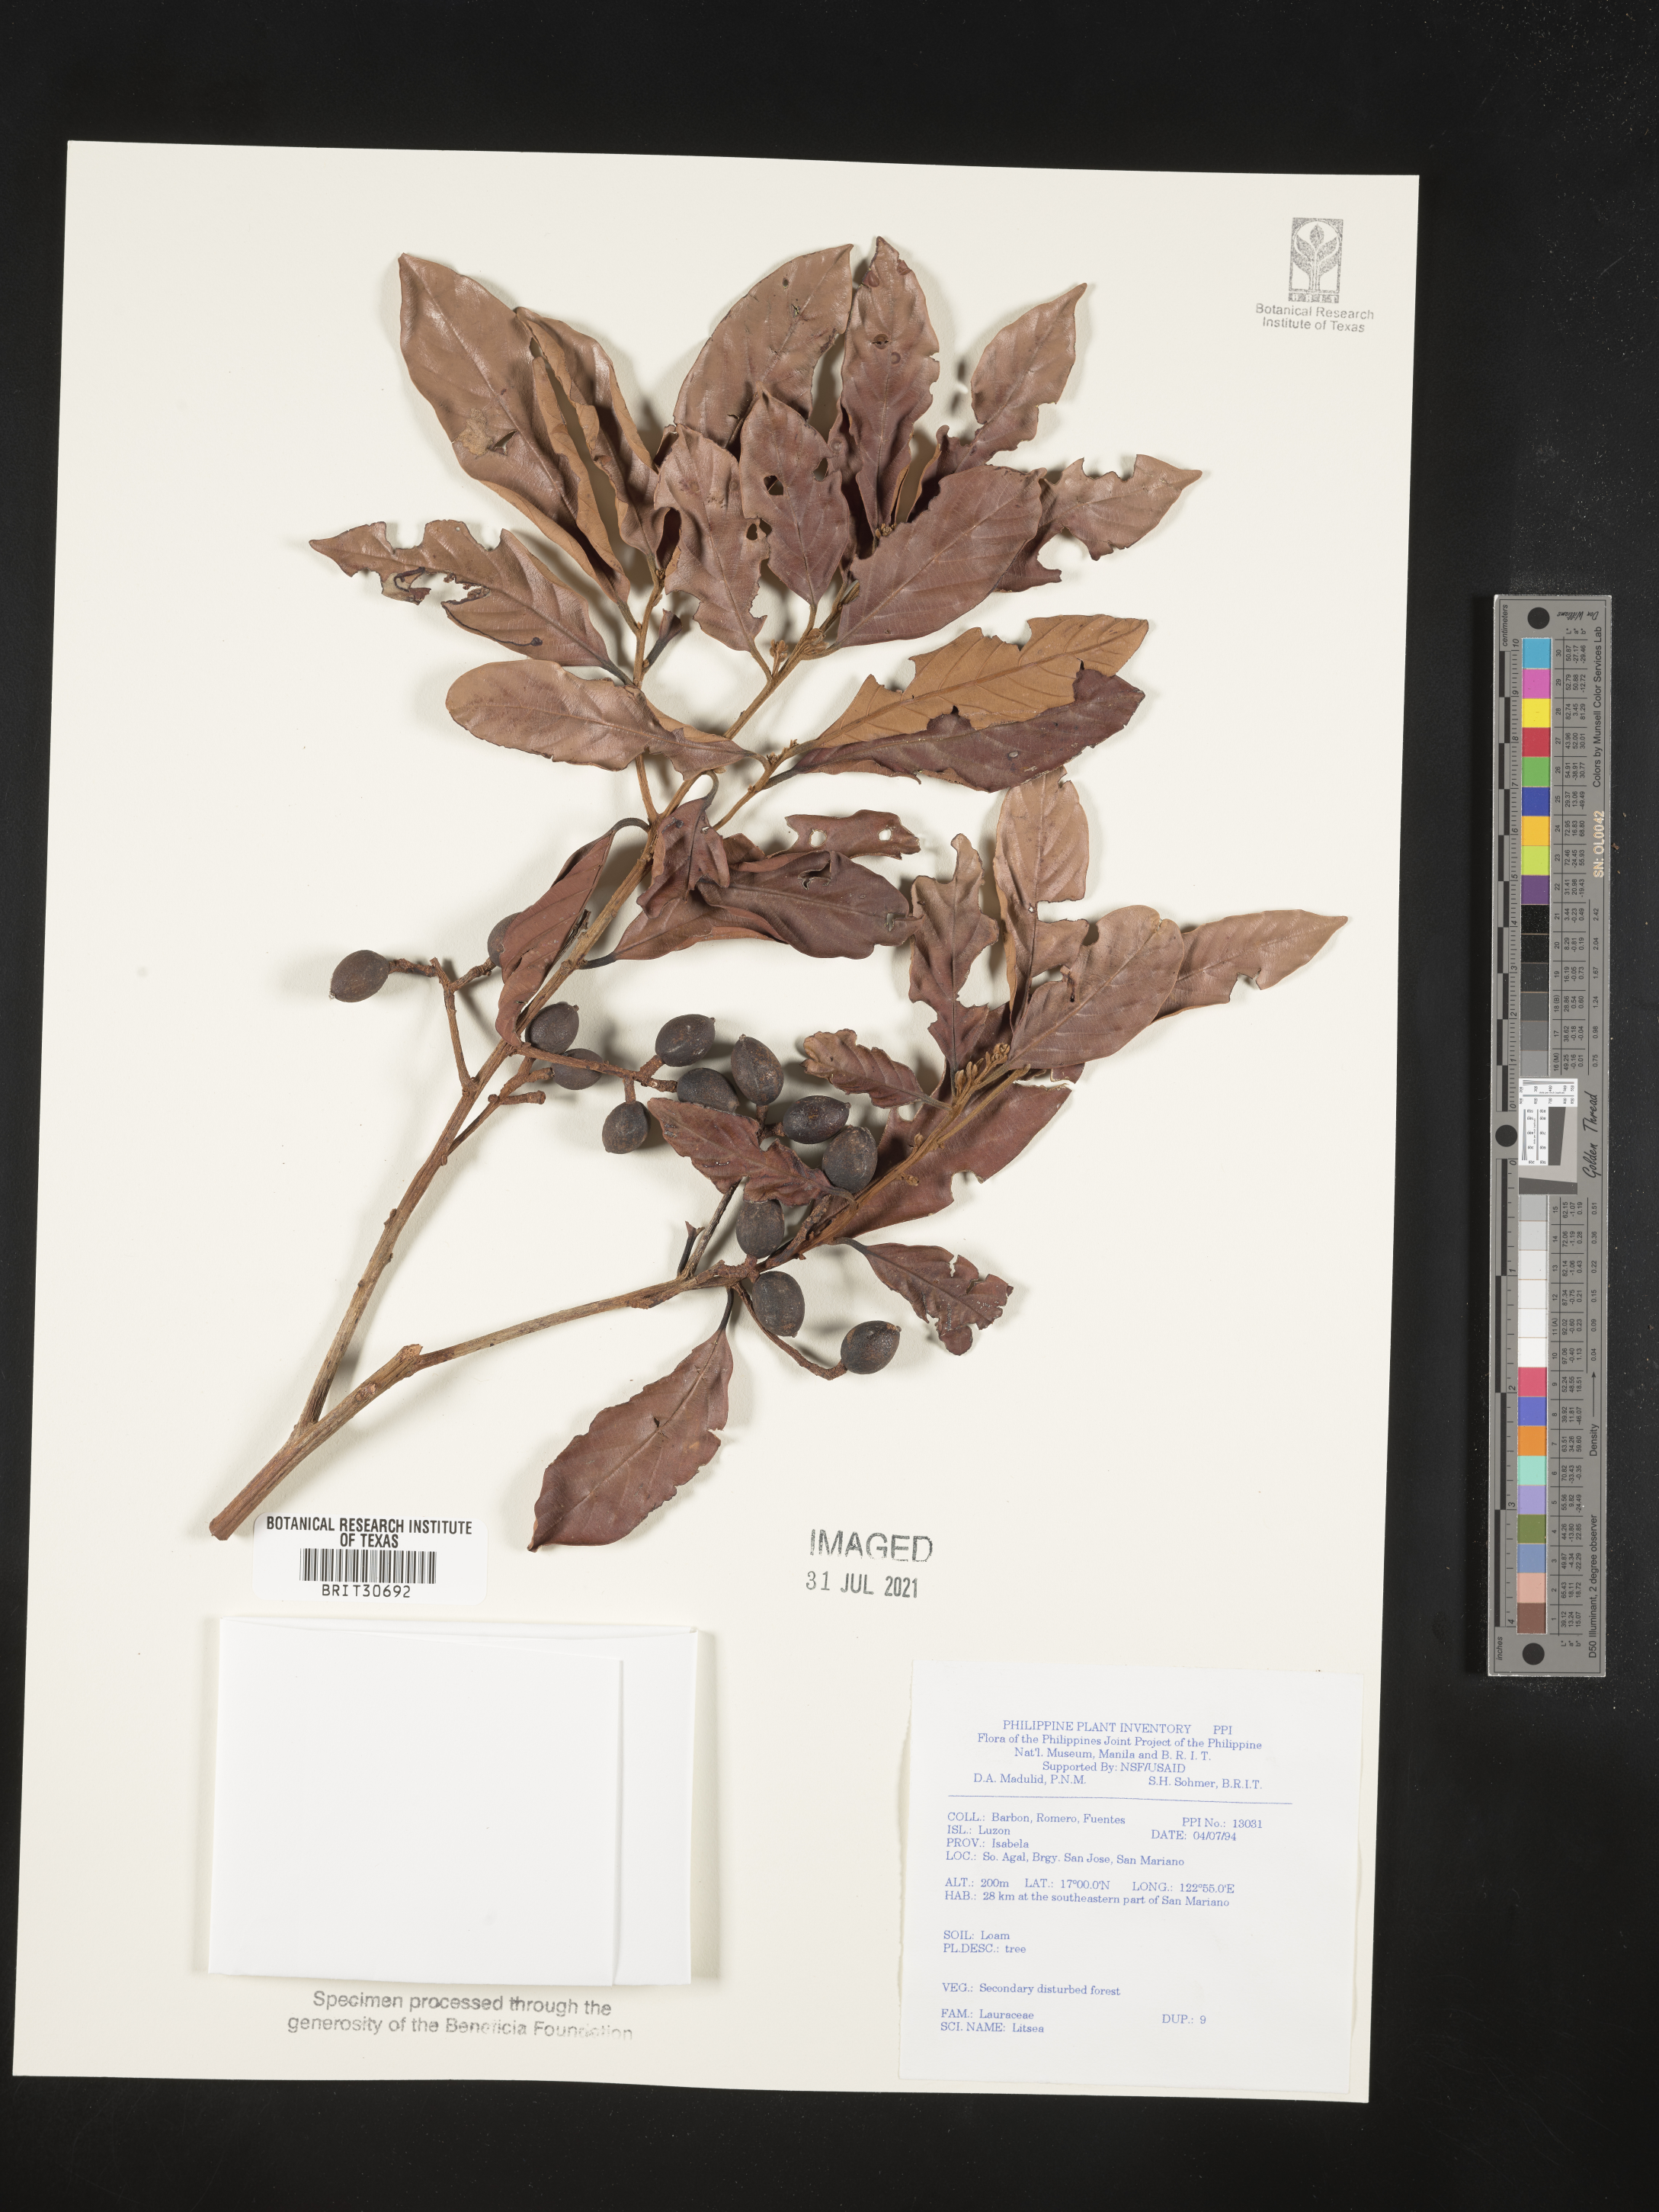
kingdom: Plantae
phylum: Tracheophyta
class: Magnoliopsida
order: Laurales
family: Lauraceae
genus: Litsea
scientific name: Litsea
